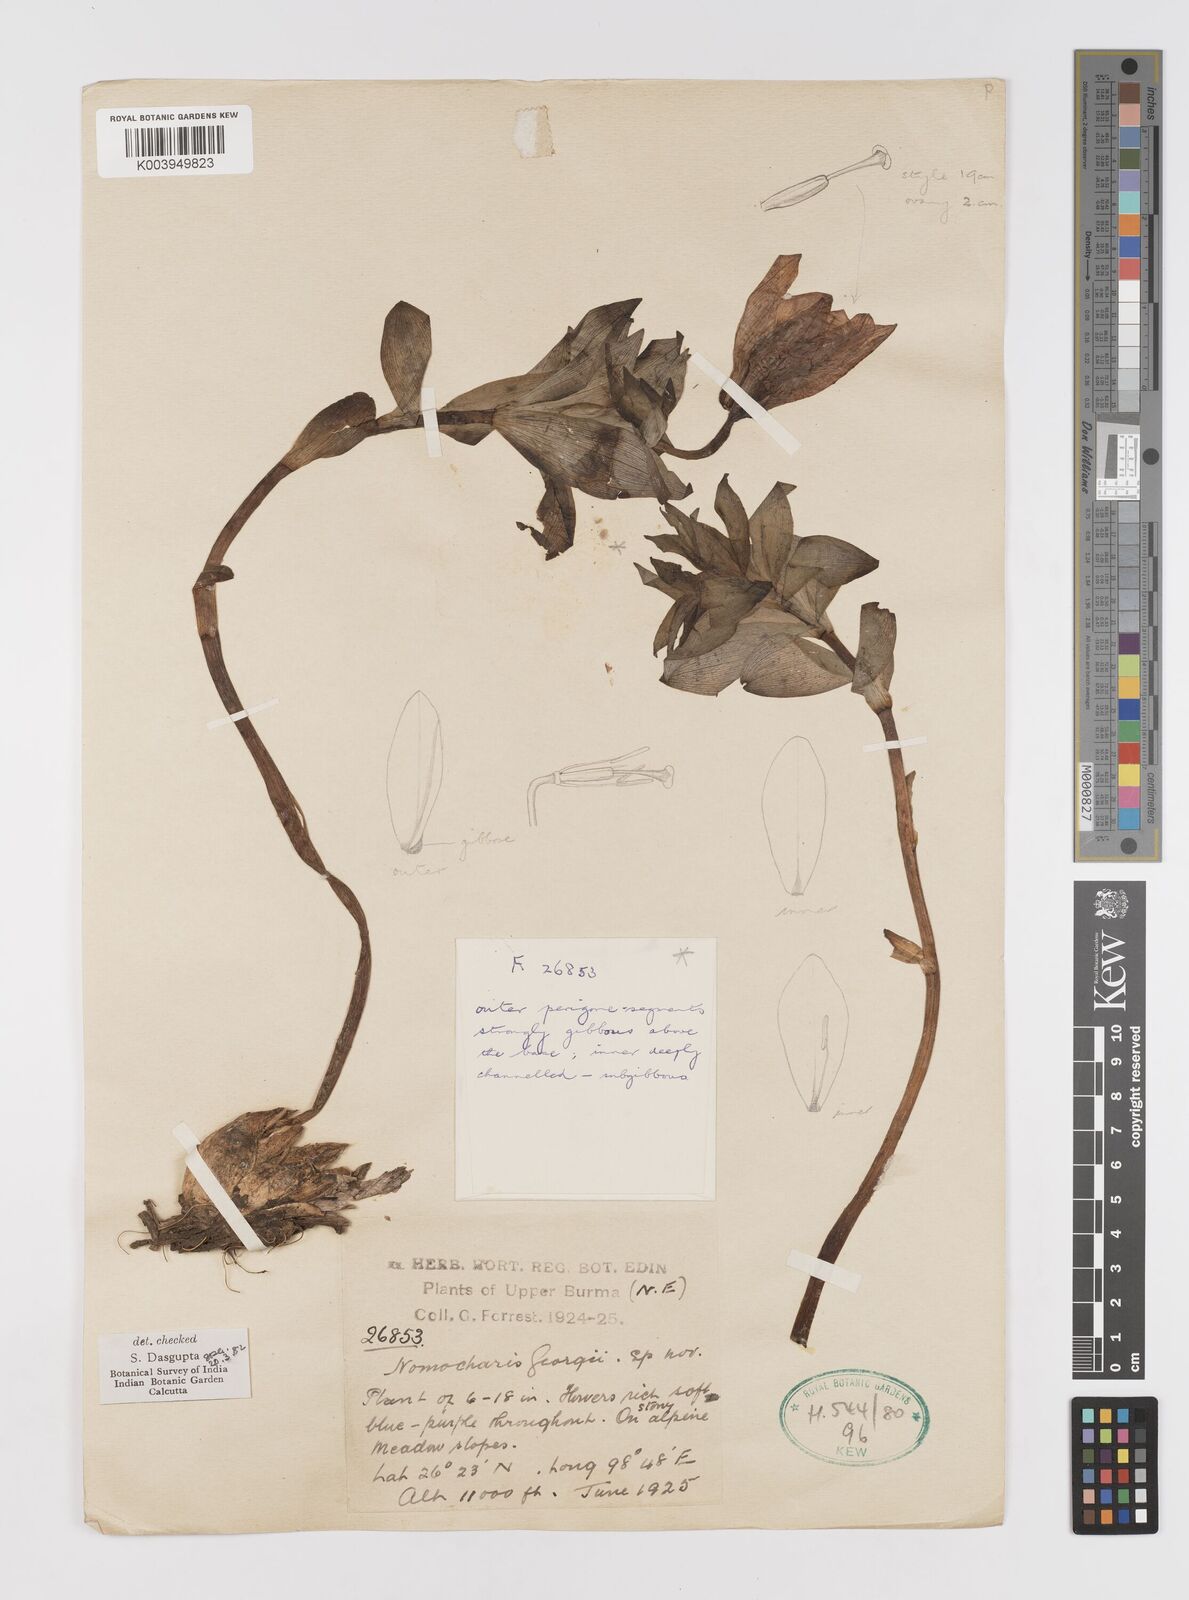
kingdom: Plantae
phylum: Tracheophyta
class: Liliopsida
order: Liliales
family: Liliaceae
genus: Lilium
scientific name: Lilium georgei
